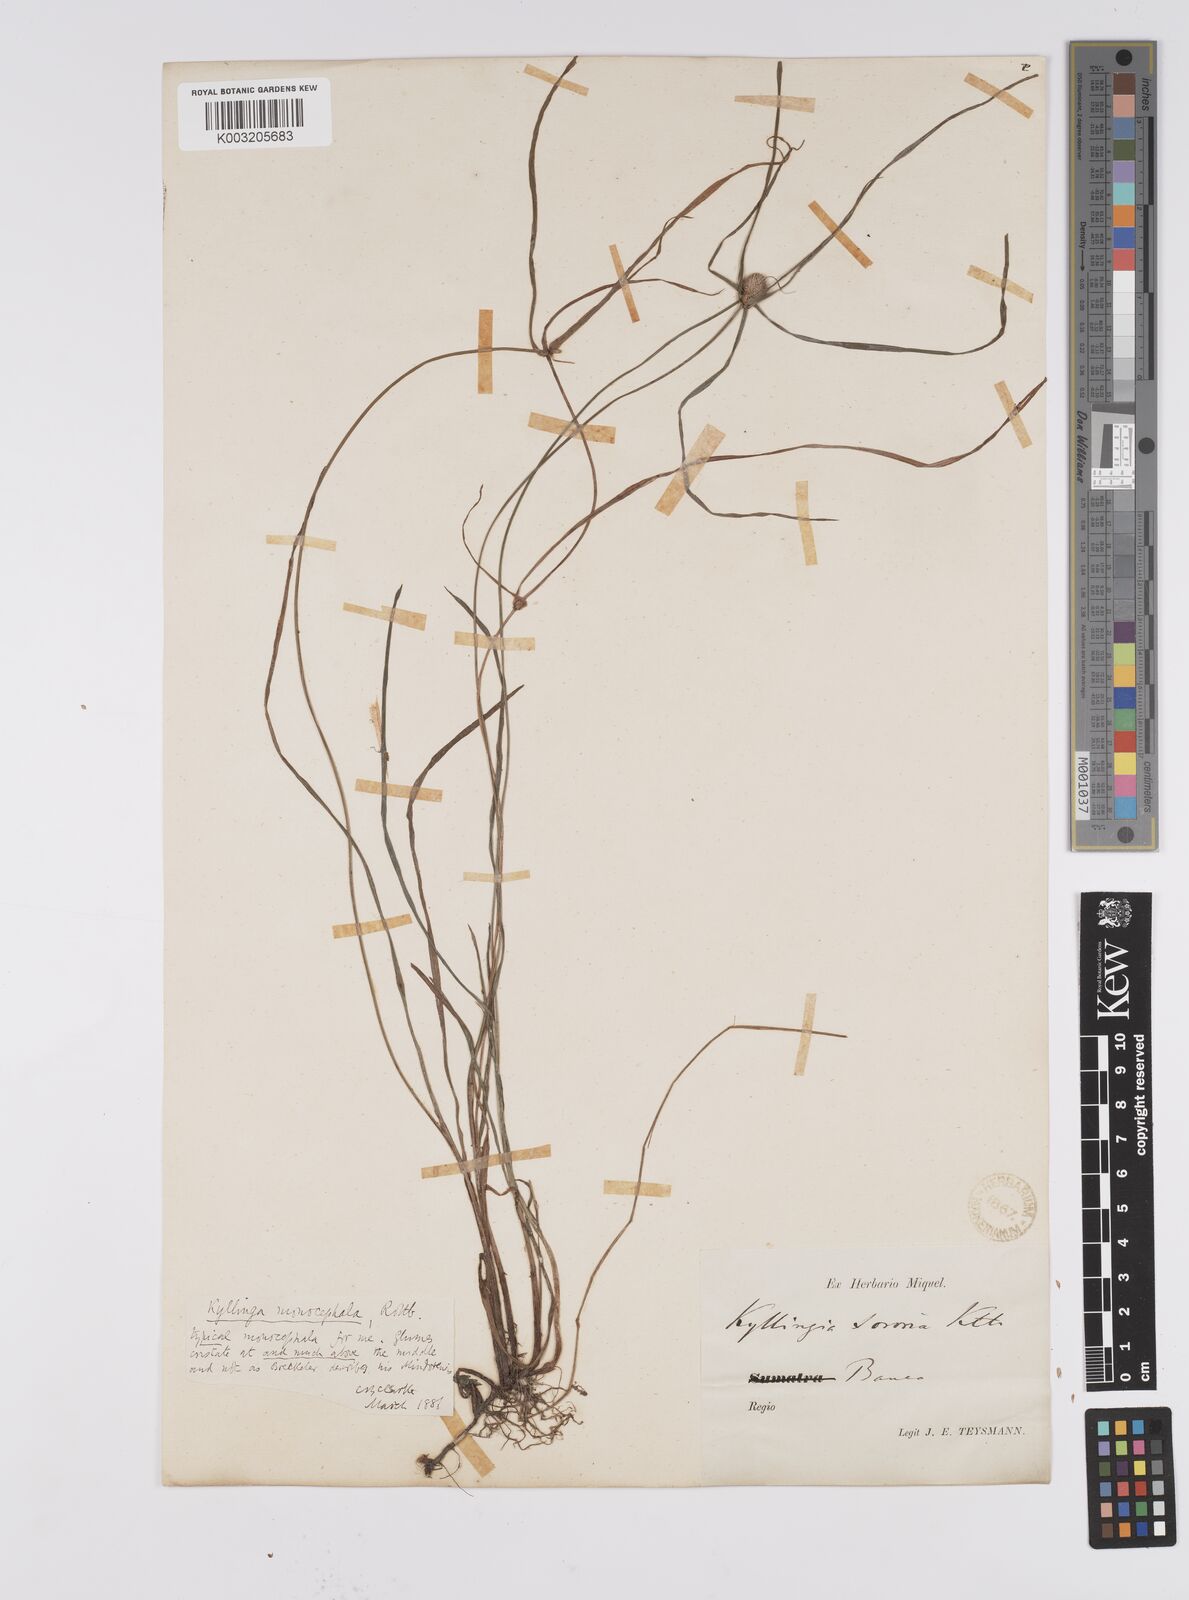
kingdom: Plantae
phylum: Tracheophyta
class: Liliopsida
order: Poales
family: Cyperaceae
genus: Cyperus
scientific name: Cyperus nemoralis
